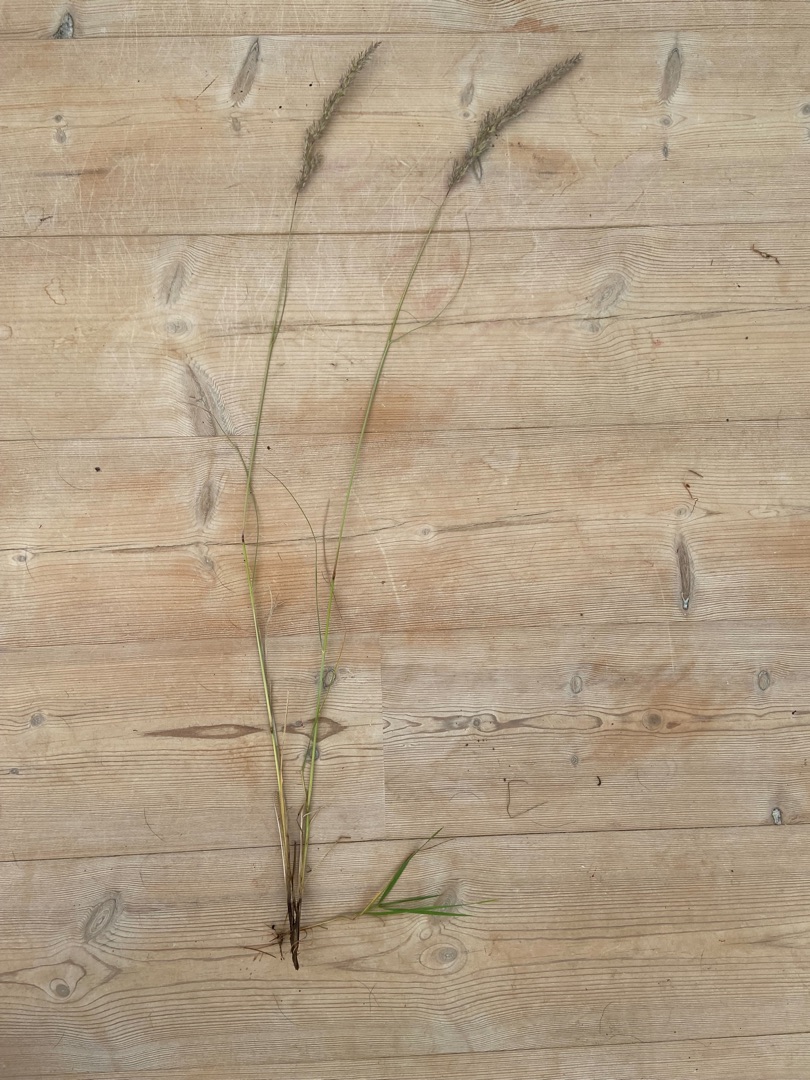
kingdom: Plantae
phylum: Tracheophyta
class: Liliopsida
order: Poales
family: Poaceae
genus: Calamagrostis
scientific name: Calamagrostis epigejos
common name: Bjerg-rørhvene
